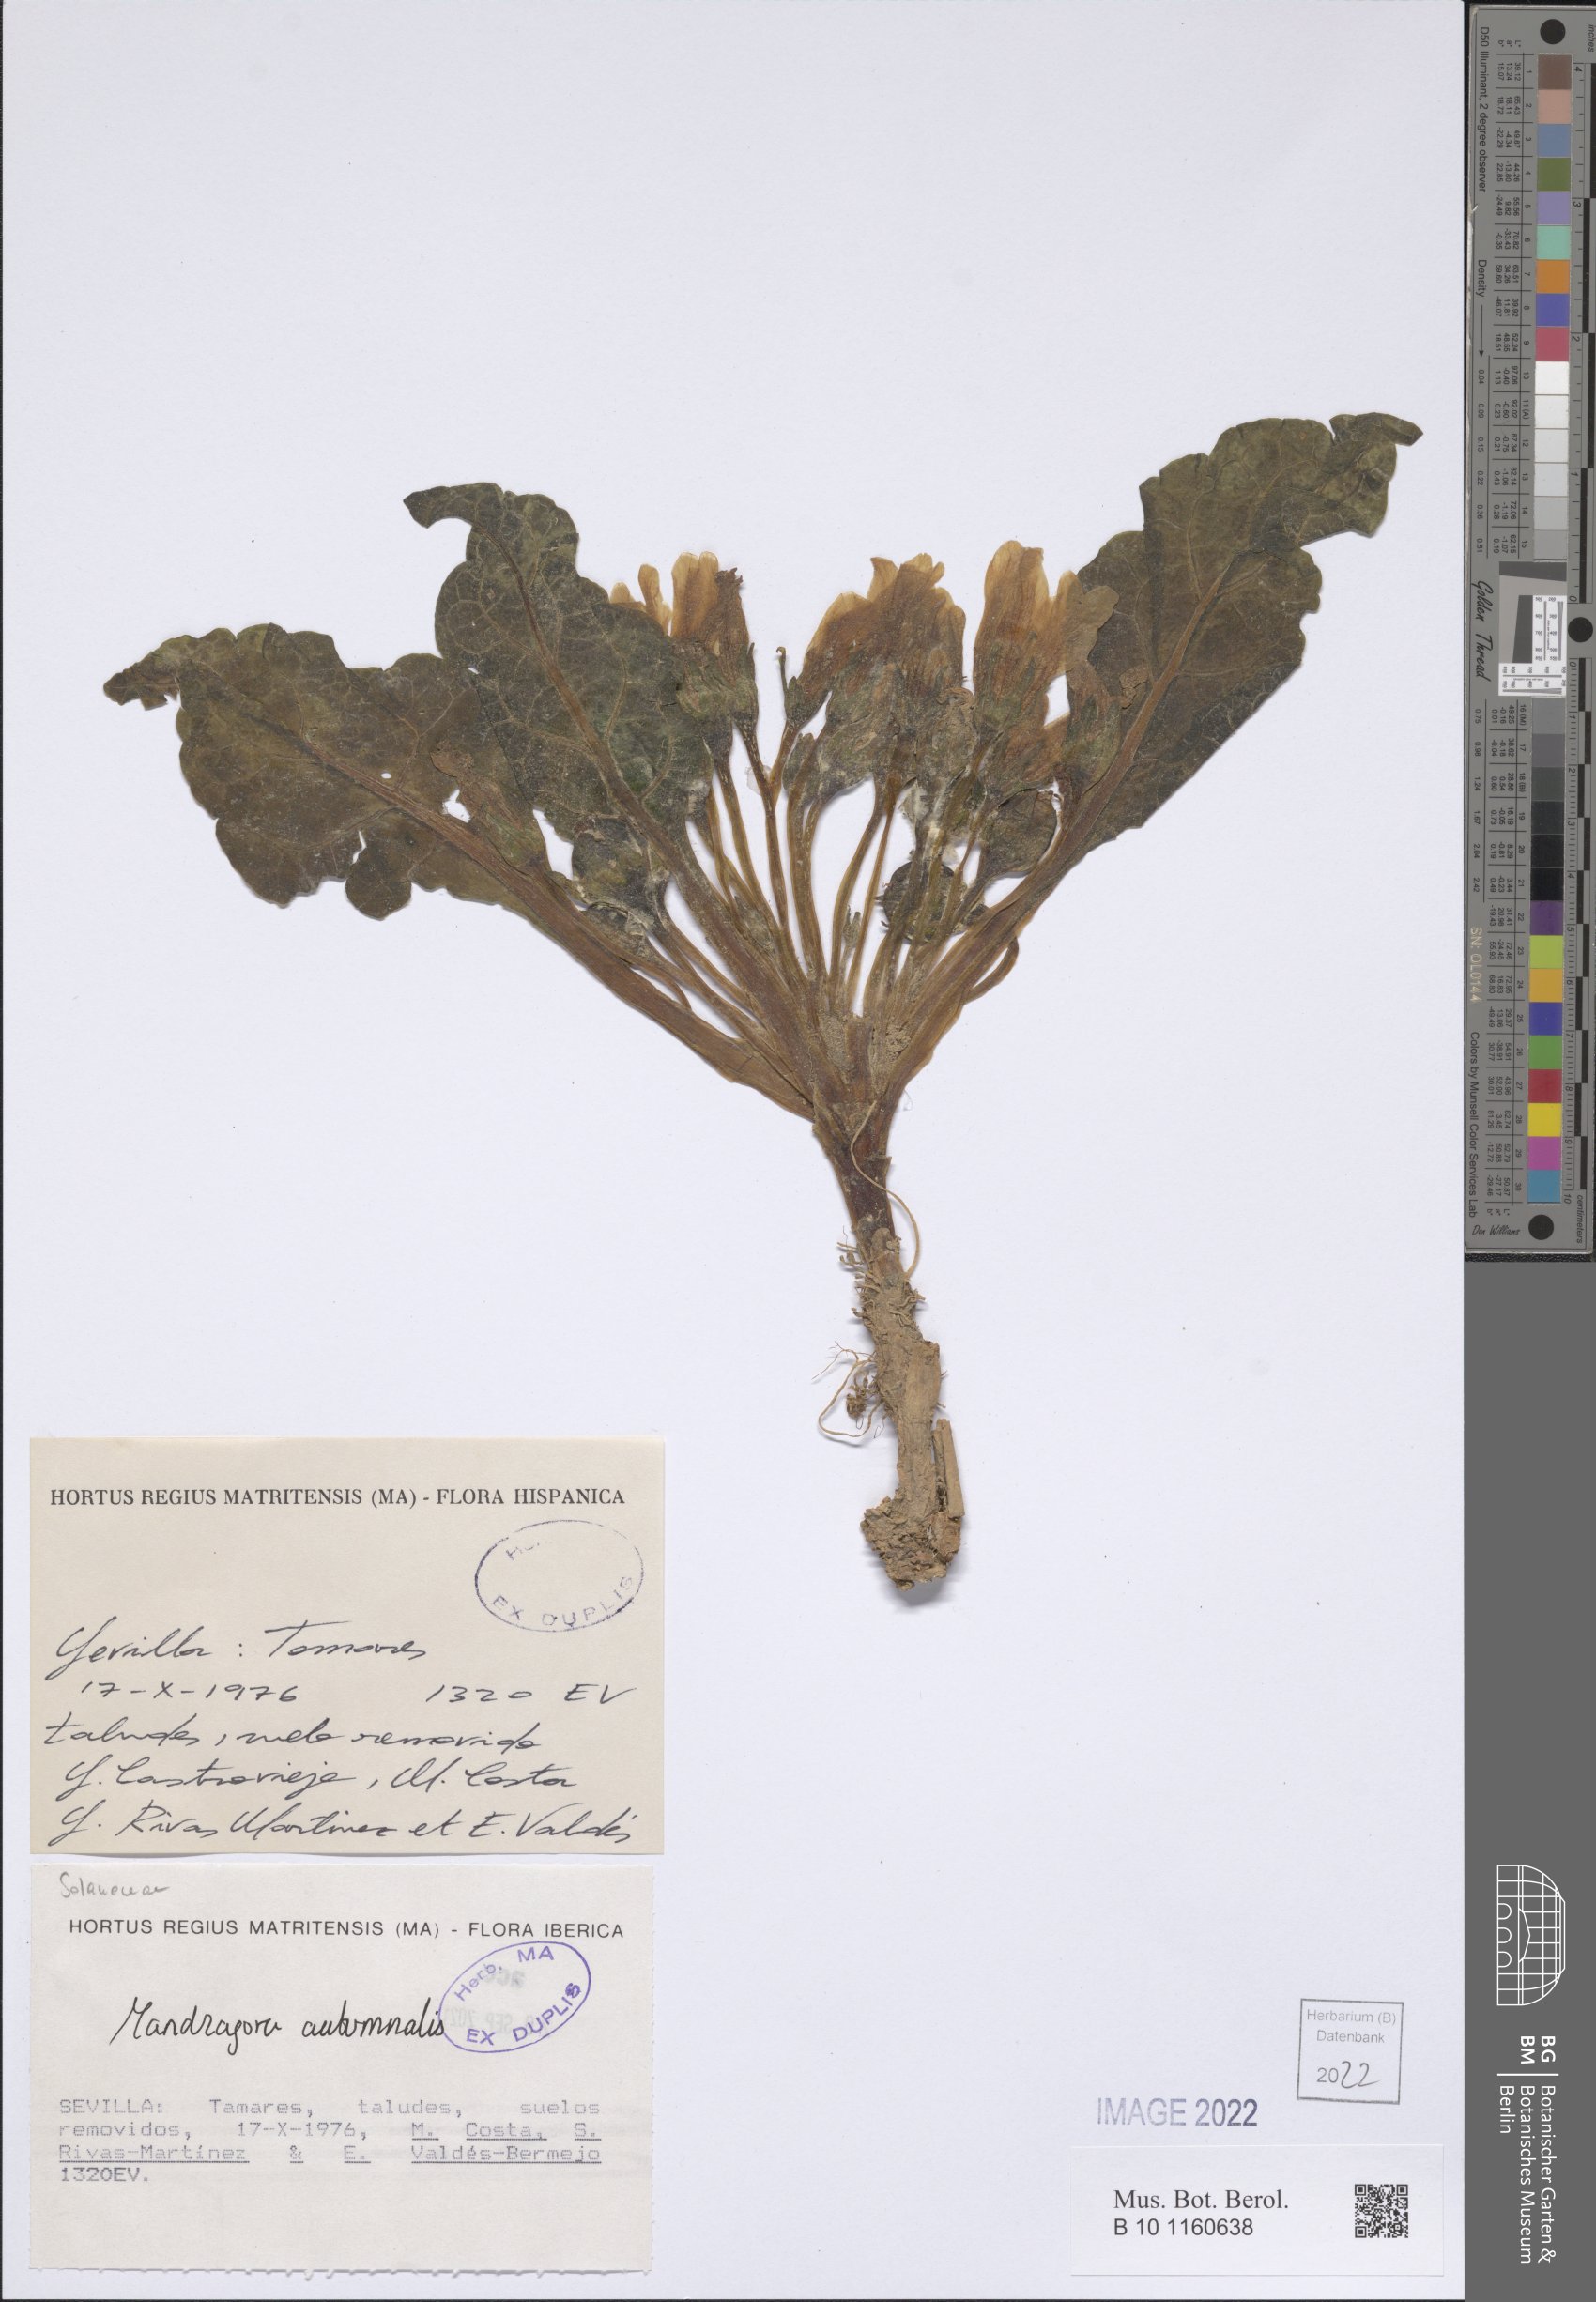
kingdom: Plantae
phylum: Tracheophyta
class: Magnoliopsida
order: Solanales
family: Solanaceae
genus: Mandragora
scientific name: Mandragora officinarum
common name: Mandrake
